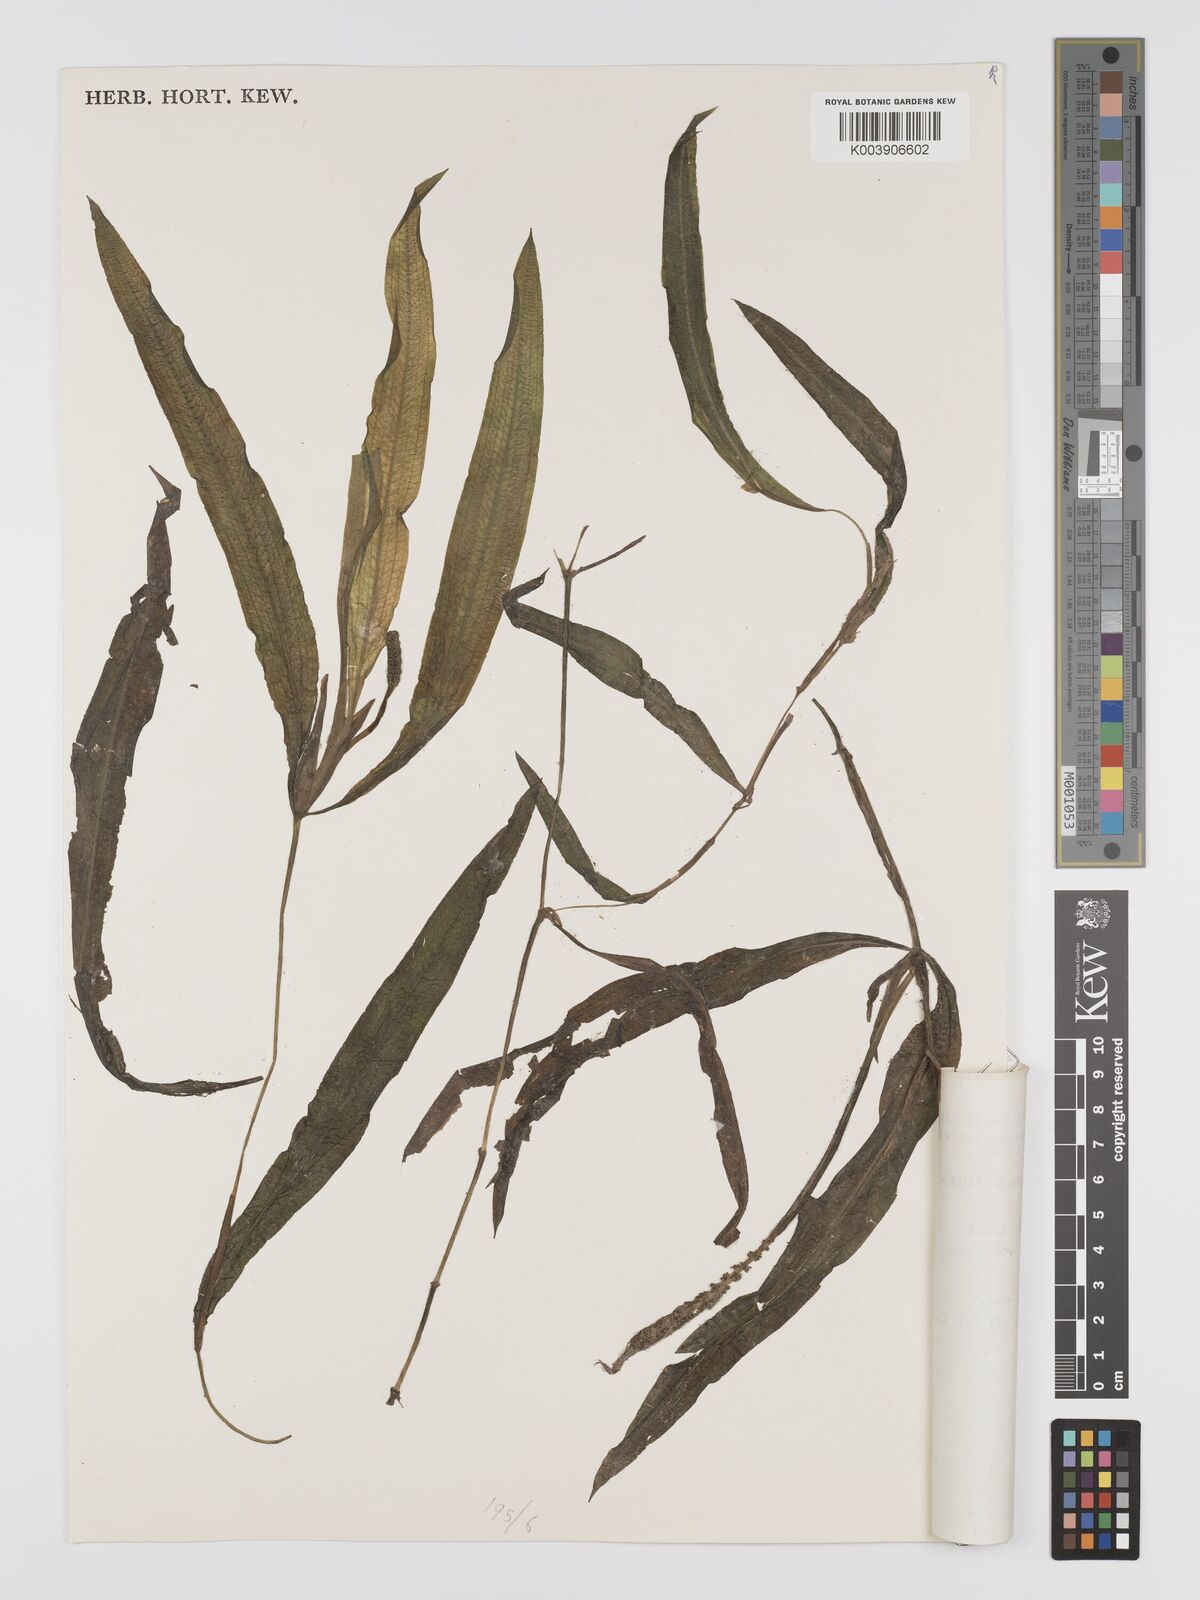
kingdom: Plantae
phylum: Tracheophyta
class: Liliopsida
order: Alismatales
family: Potamogetonaceae
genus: Potamogeton
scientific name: Potamogeton schweinfurthii
